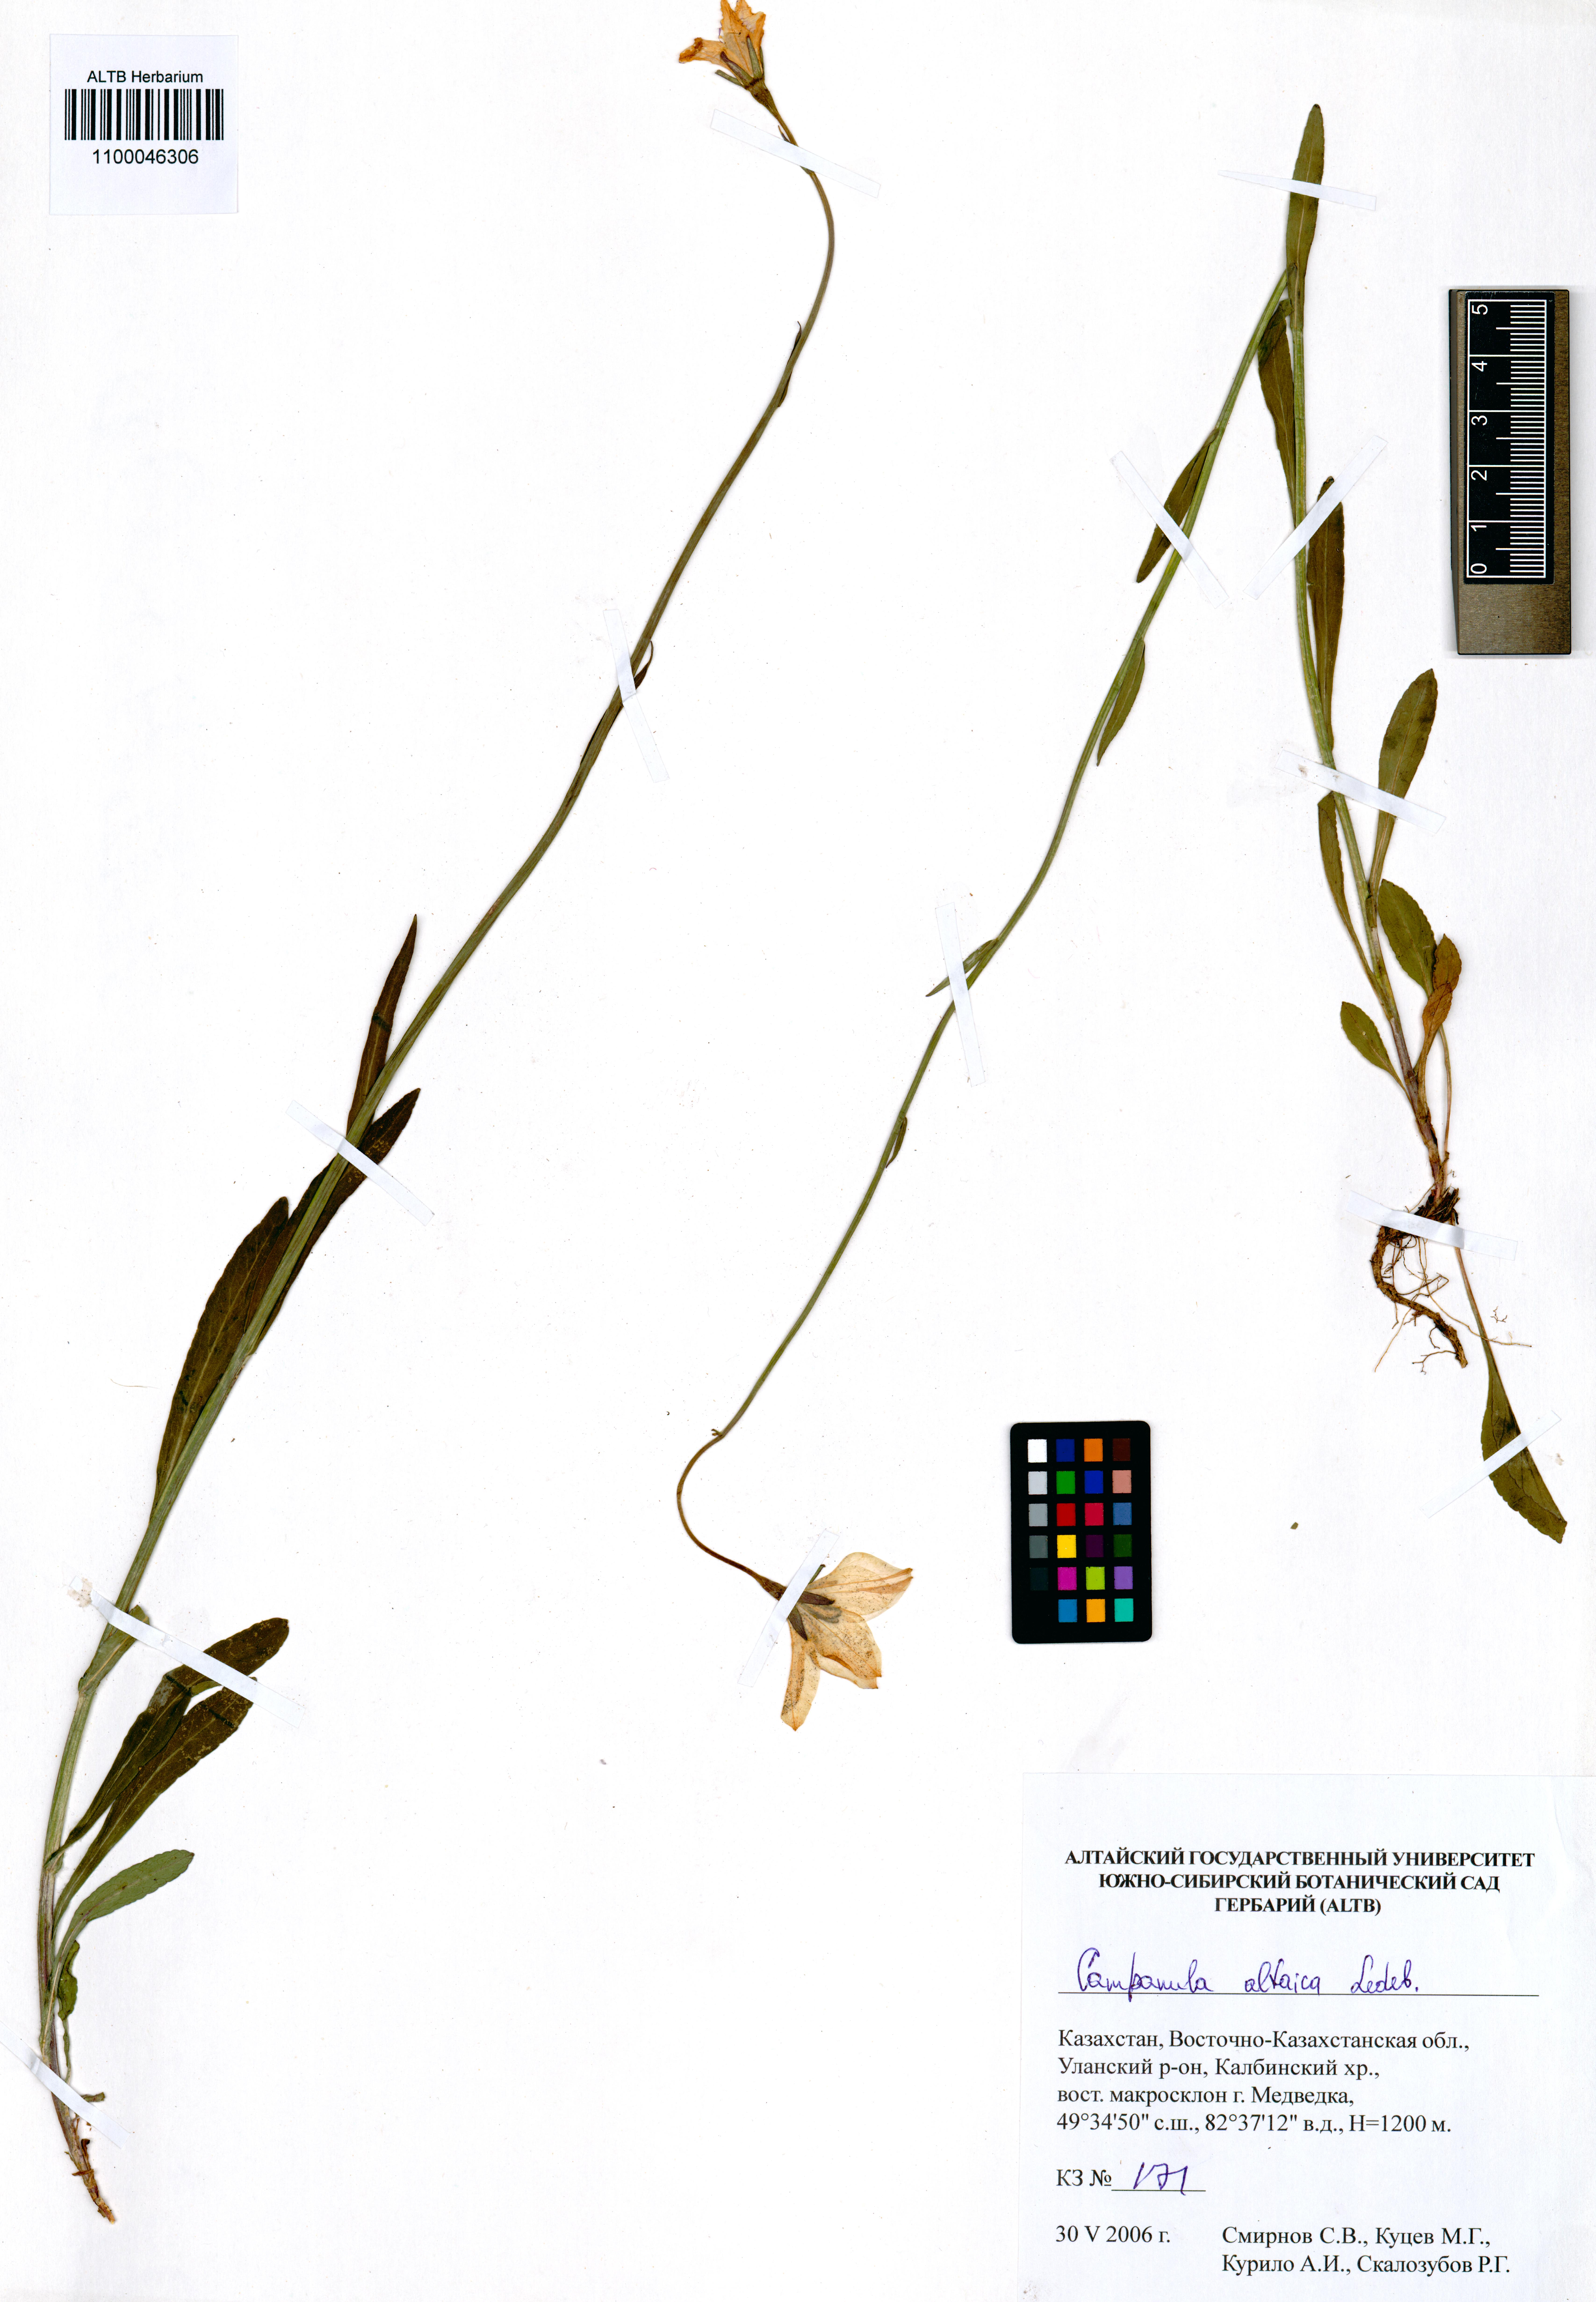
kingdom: Plantae
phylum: Tracheophyta
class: Magnoliopsida
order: Asterales
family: Campanulaceae
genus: Campanula
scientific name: Campanula stevenii
